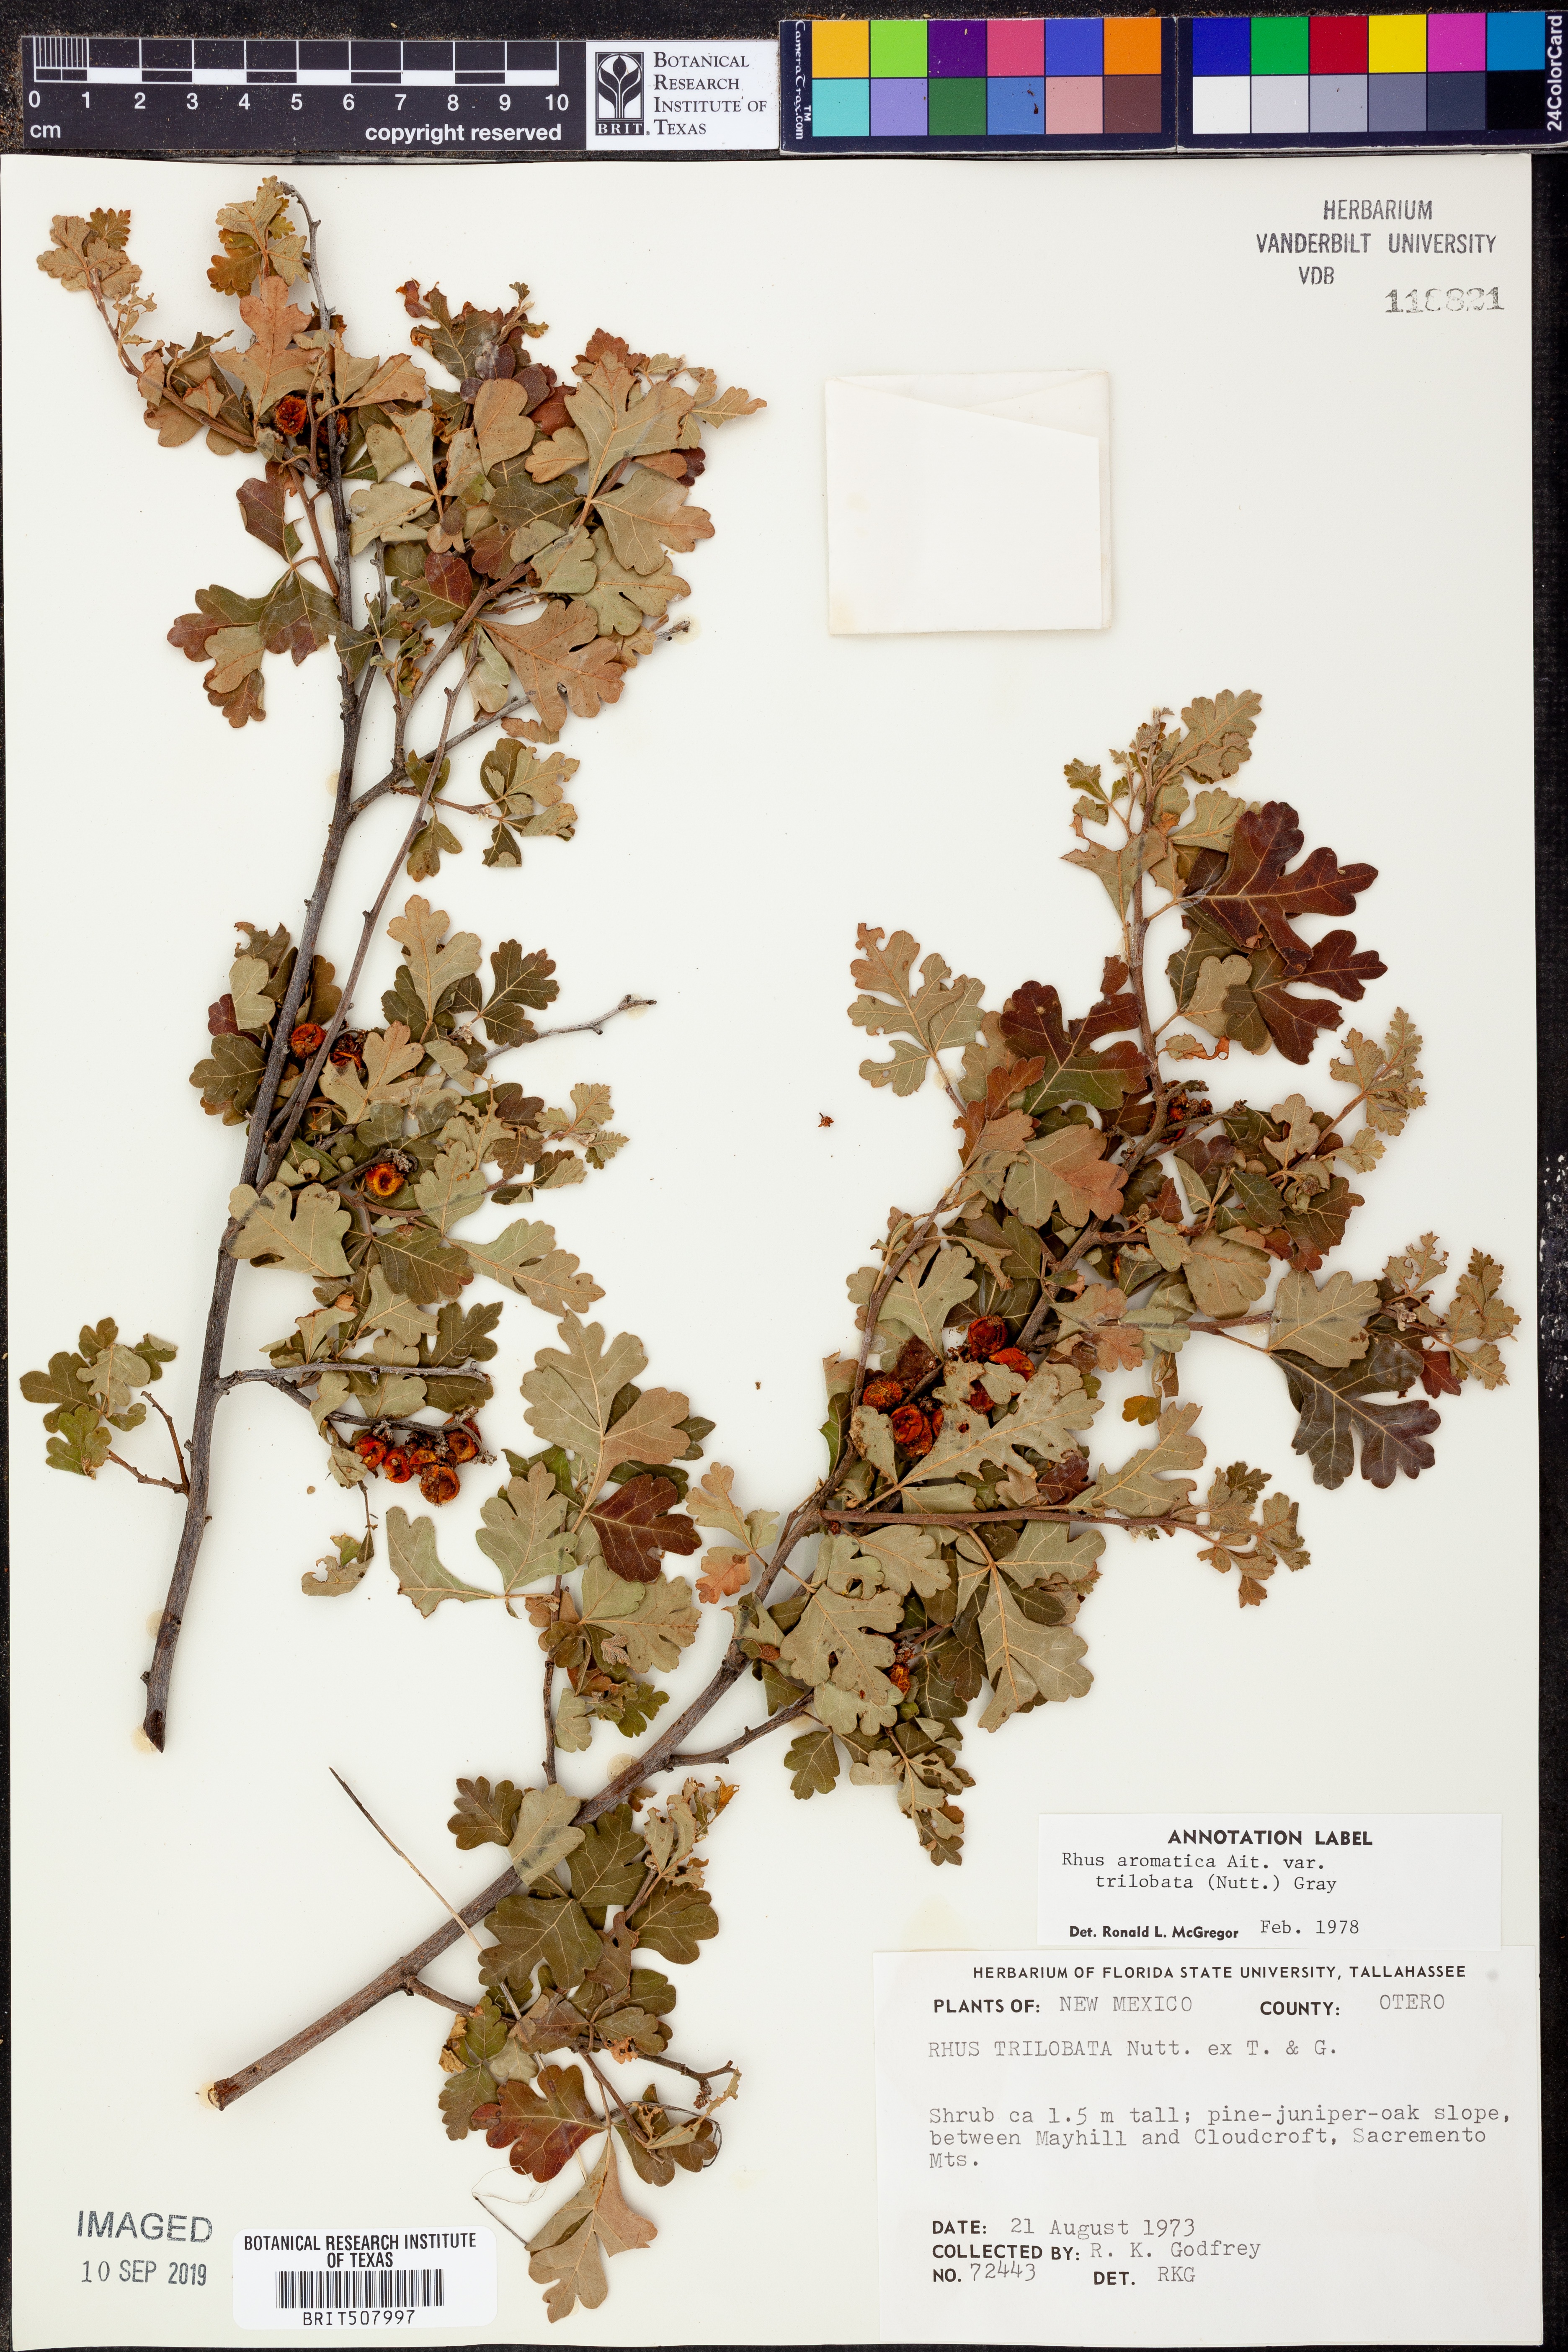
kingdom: Plantae
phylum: Tracheophyta
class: Magnoliopsida
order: Sapindales
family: Anacardiaceae
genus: Rhus
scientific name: Rhus trilobata
